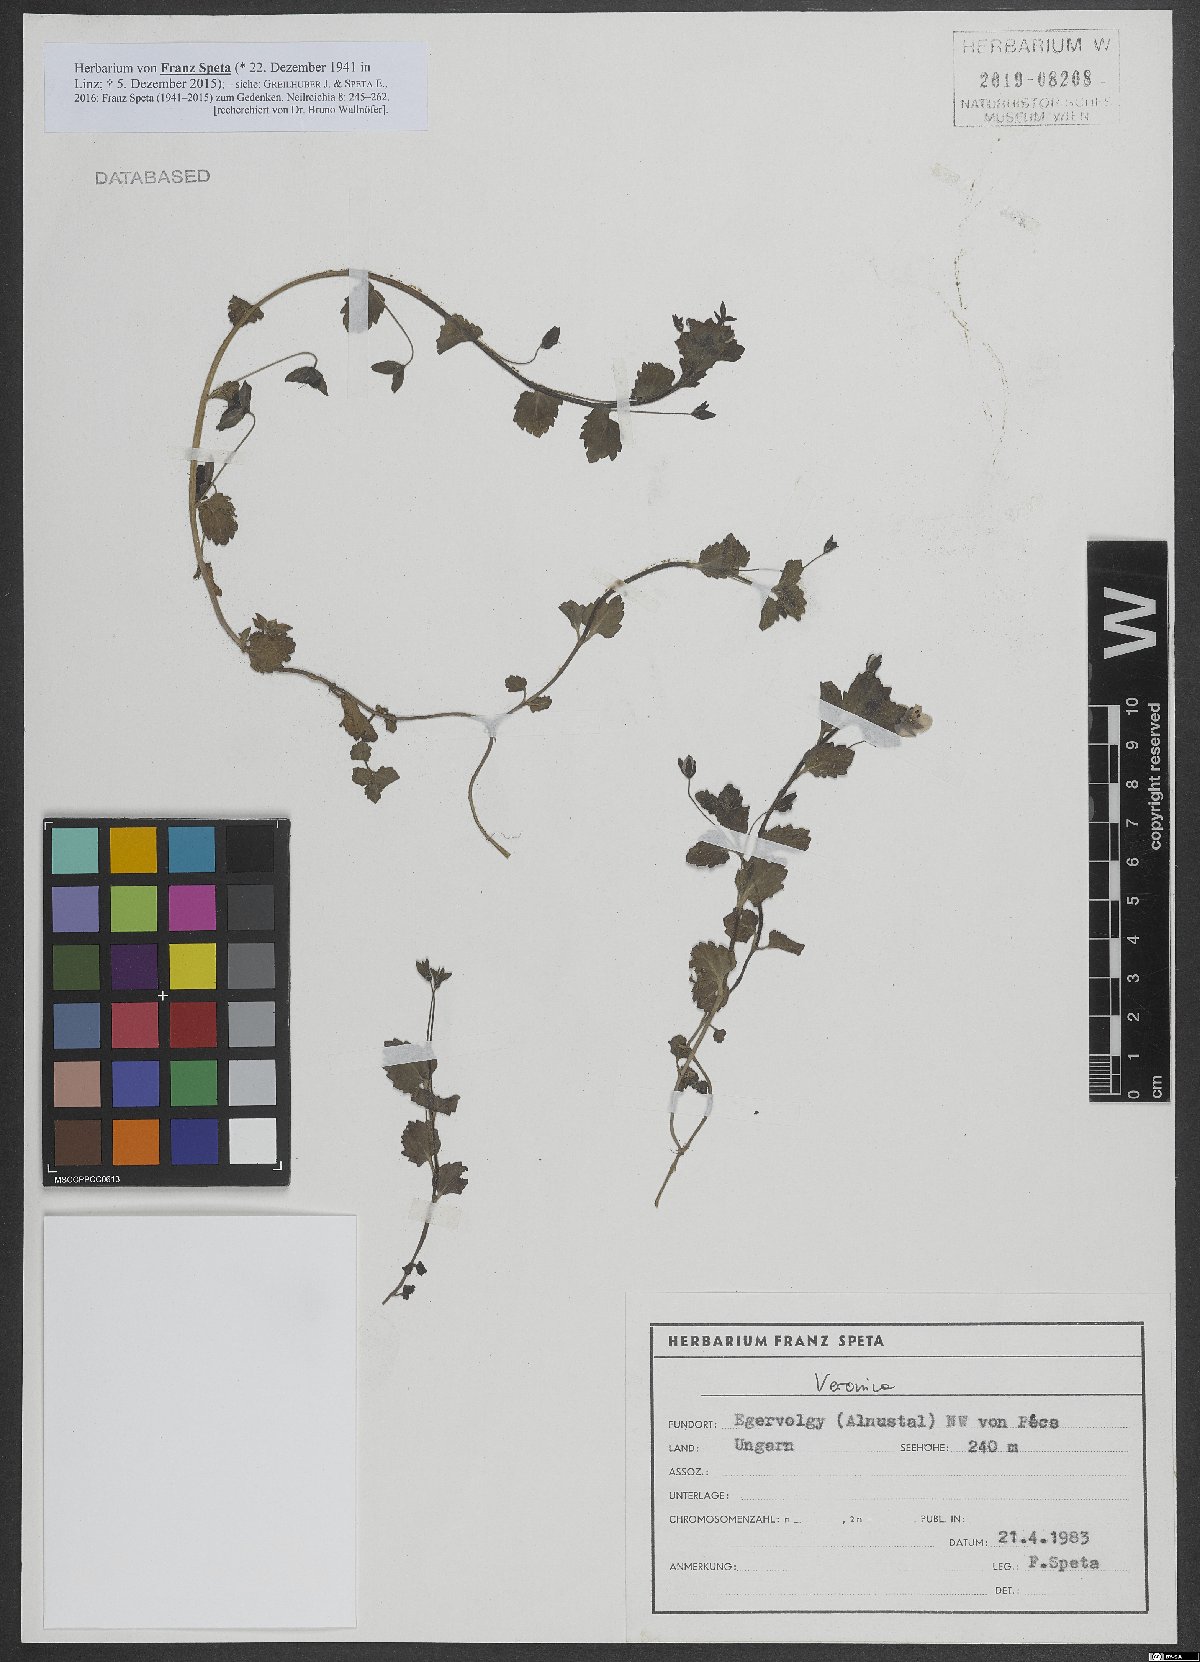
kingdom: Plantae
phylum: Tracheophyta
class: Magnoliopsida
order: Lamiales
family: Plantaginaceae
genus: Veronica
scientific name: Veronica
